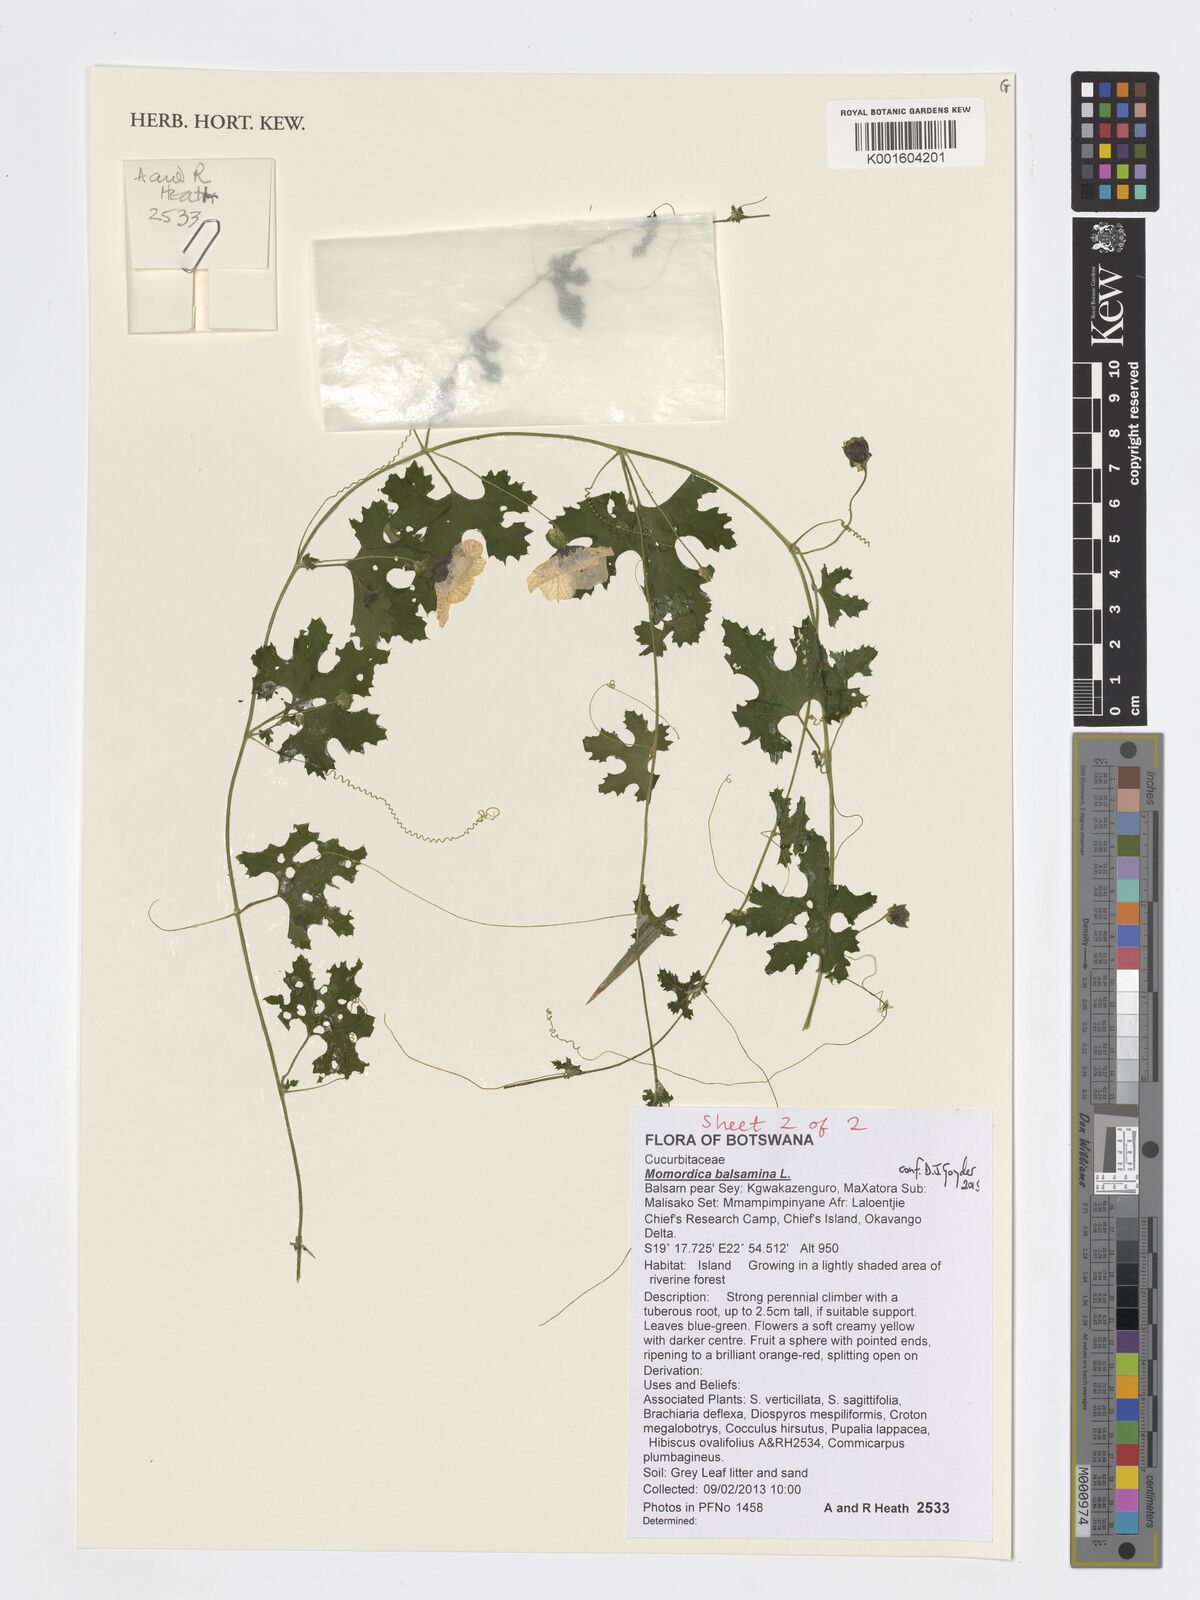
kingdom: Plantae
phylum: Tracheophyta
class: Magnoliopsida
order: Cucurbitales
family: Cucurbitaceae
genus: Momordica
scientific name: Momordica balsamina
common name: Southern balsampear
